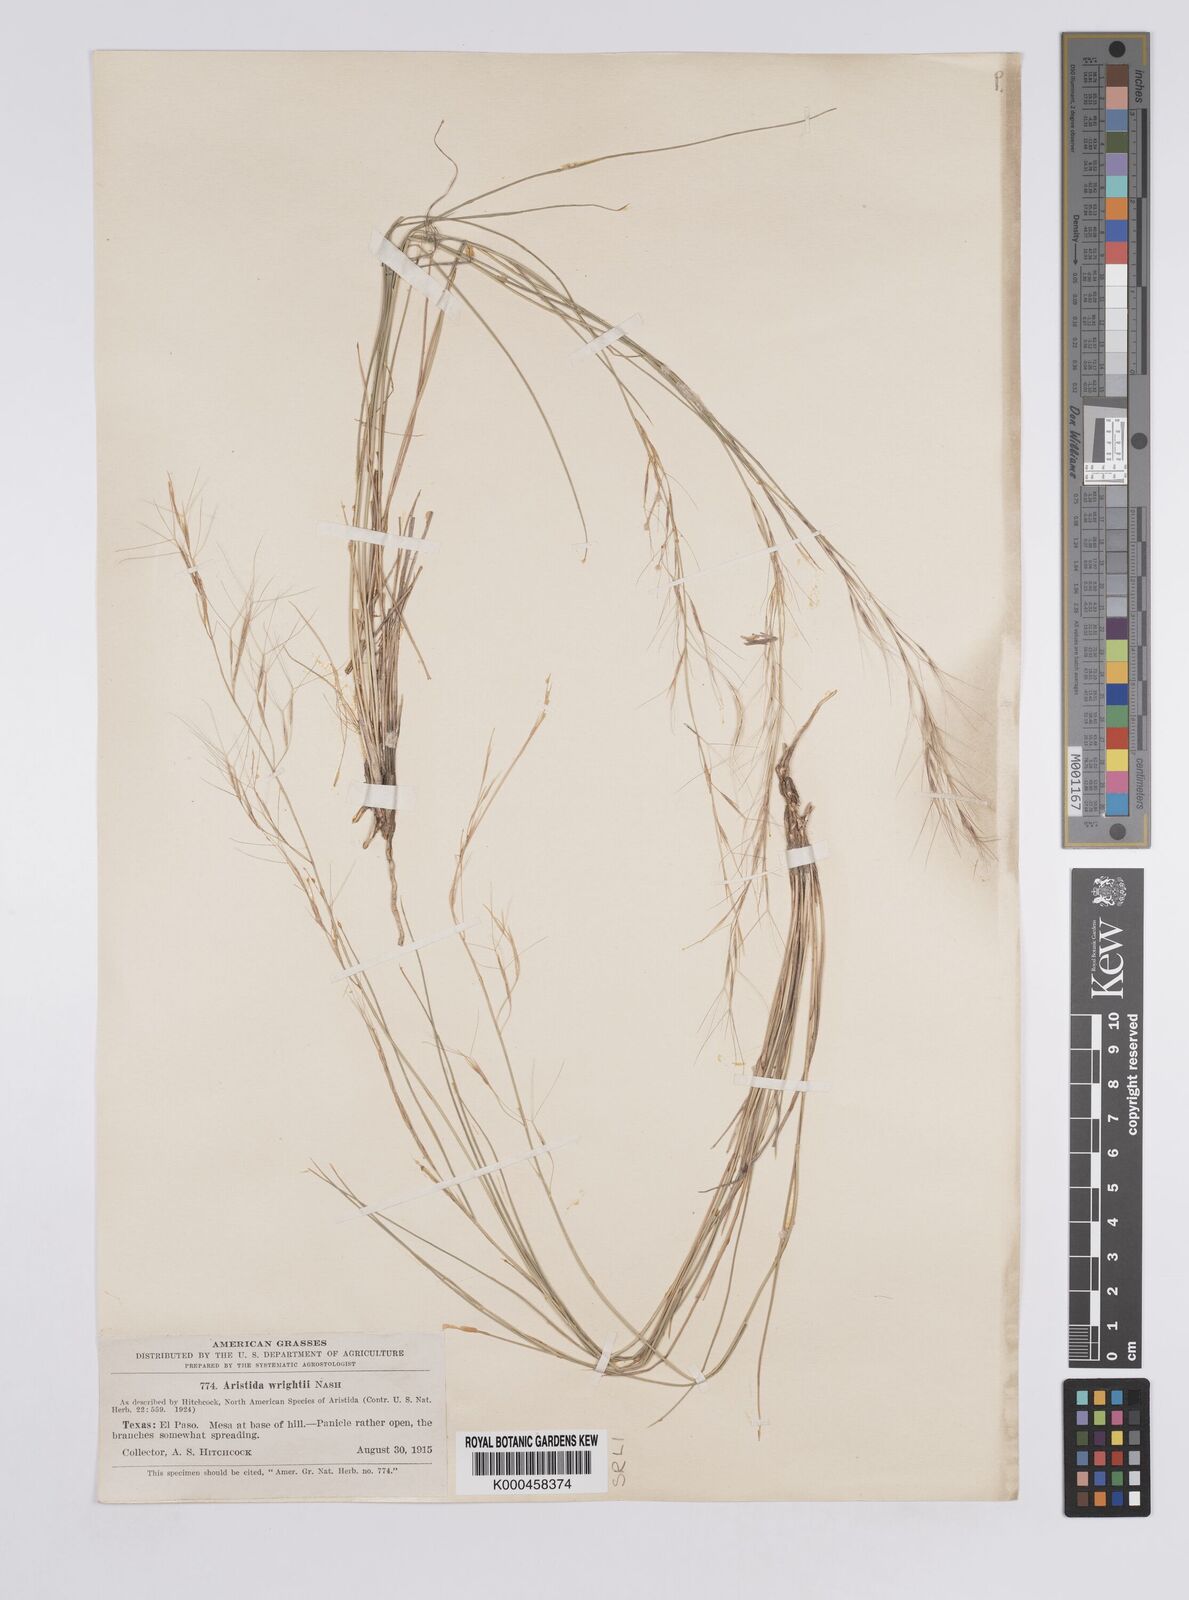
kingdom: Plantae
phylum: Tracheophyta
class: Liliopsida
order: Poales
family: Poaceae
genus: Aristida
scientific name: Aristida wrightii
